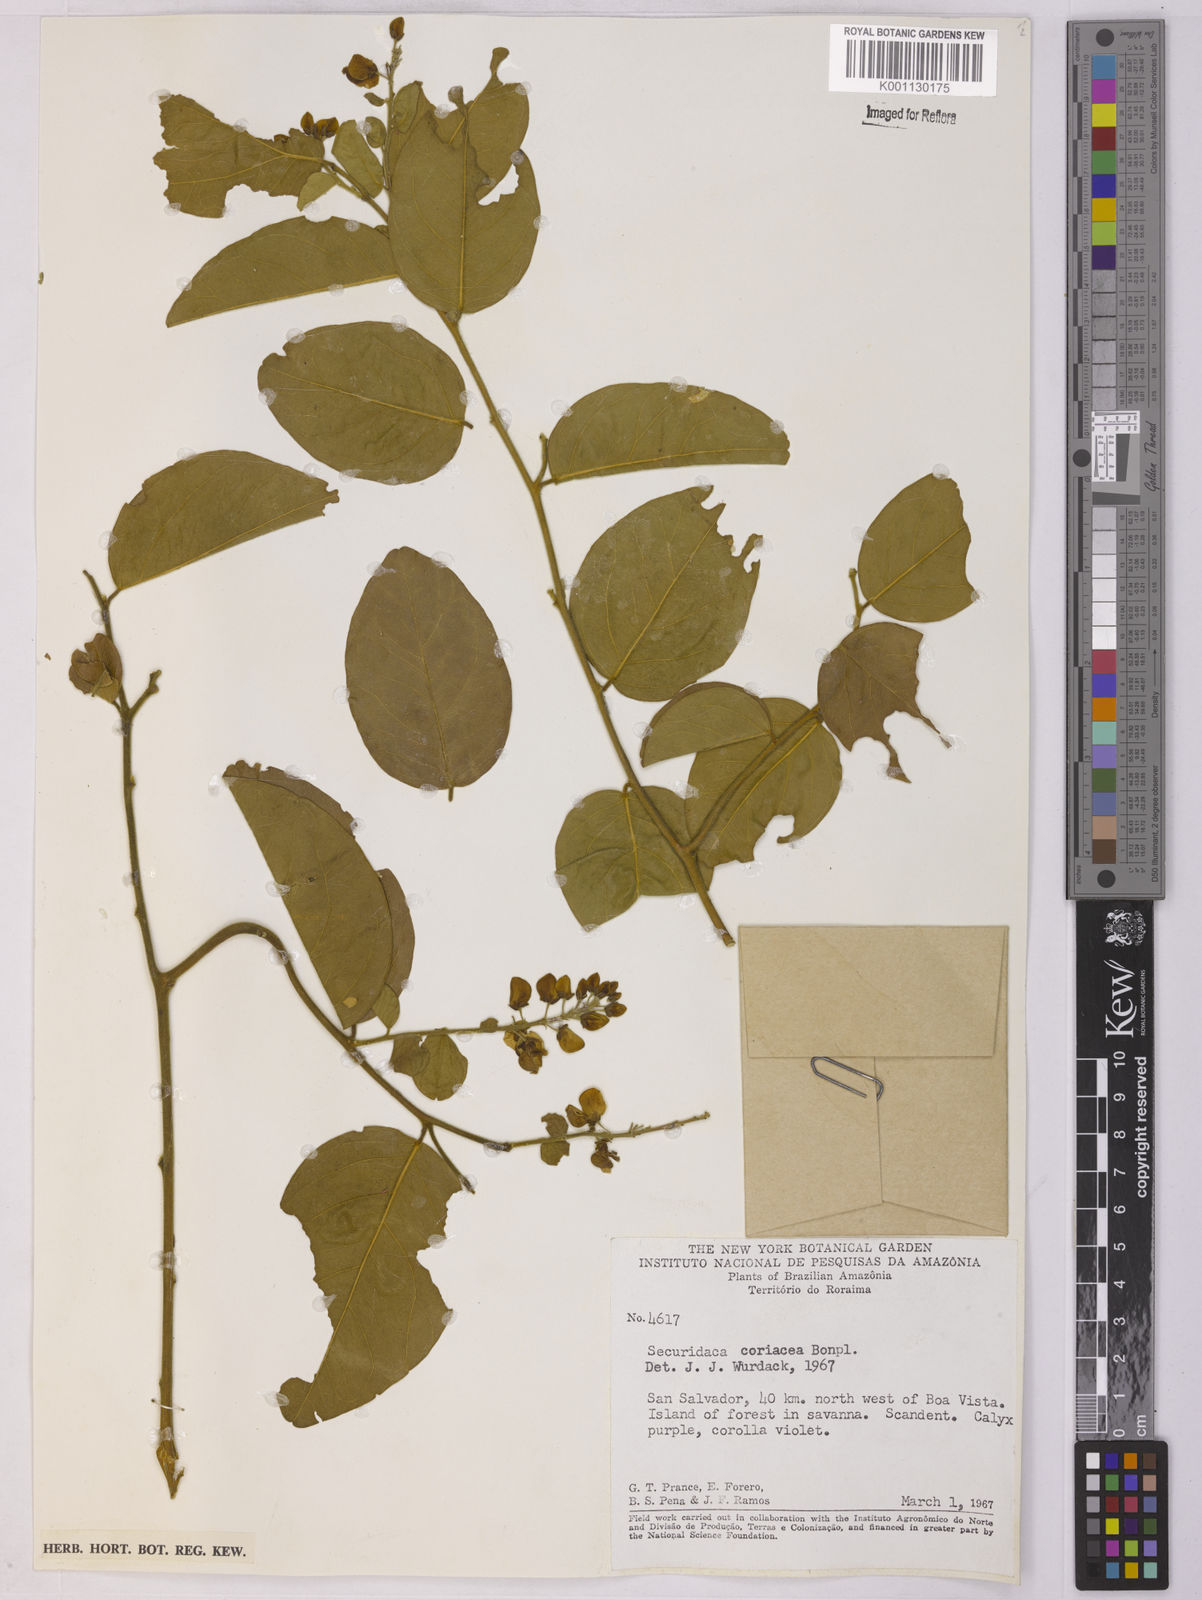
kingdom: Plantae
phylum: Tracheophyta
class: Magnoliopsida
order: Fabales
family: Polygalaceae
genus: Securidaca
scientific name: Securidaca coriacea
